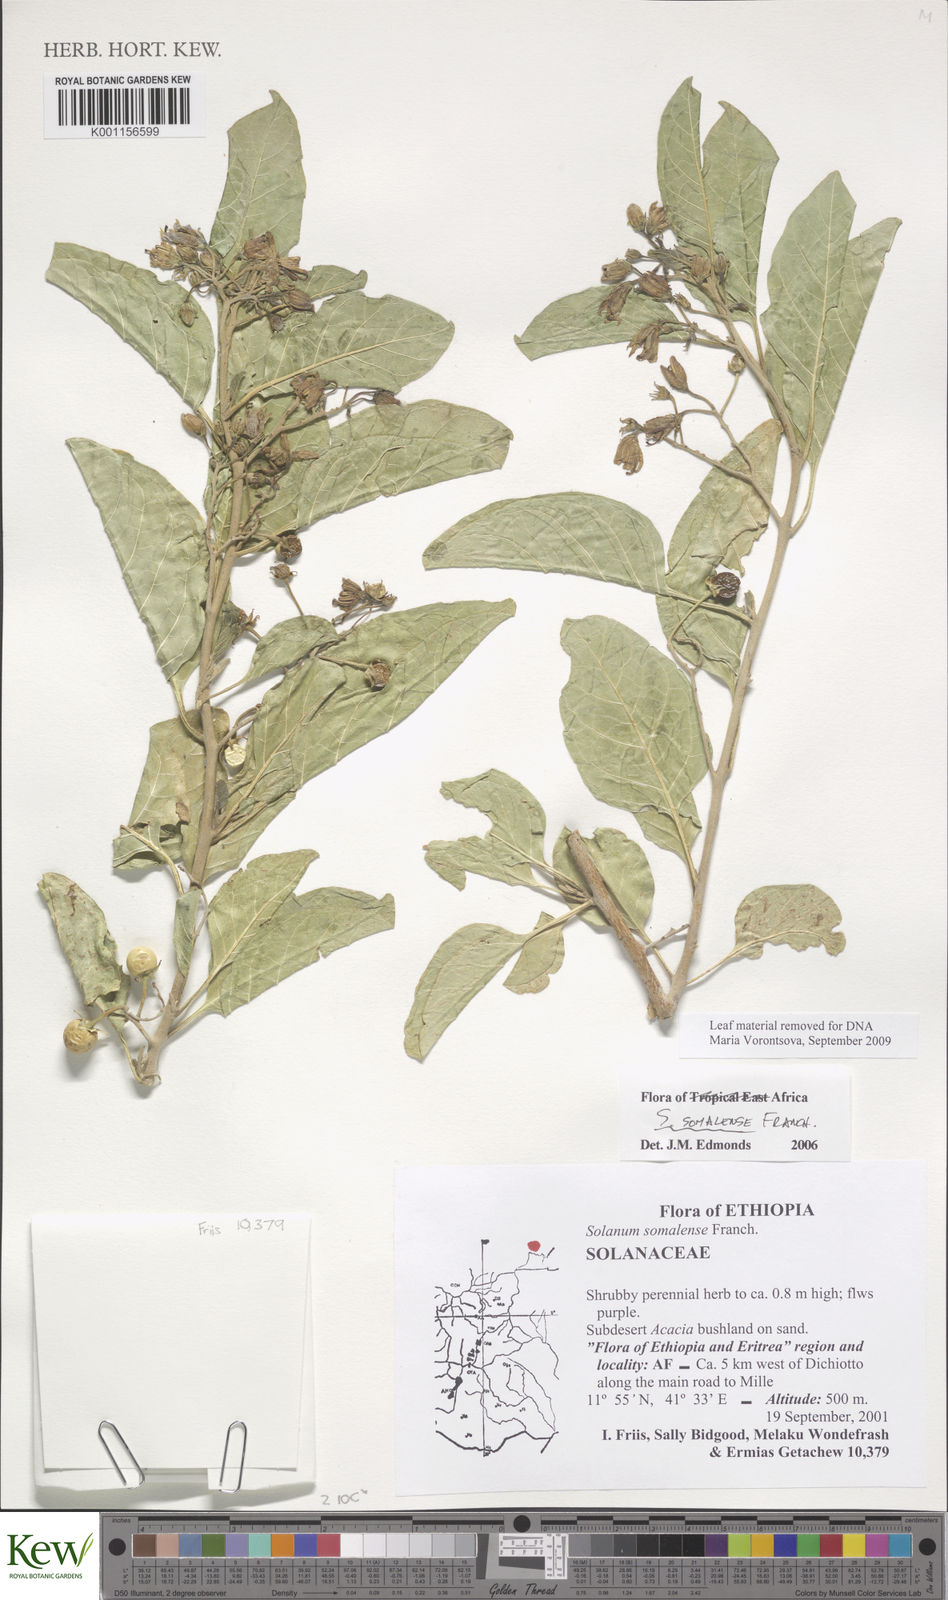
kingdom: Plantae
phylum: Tracheophyta
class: Magnoliopsida
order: Solanales
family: Solanaceae
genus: Solanum
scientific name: Solanum somalense
